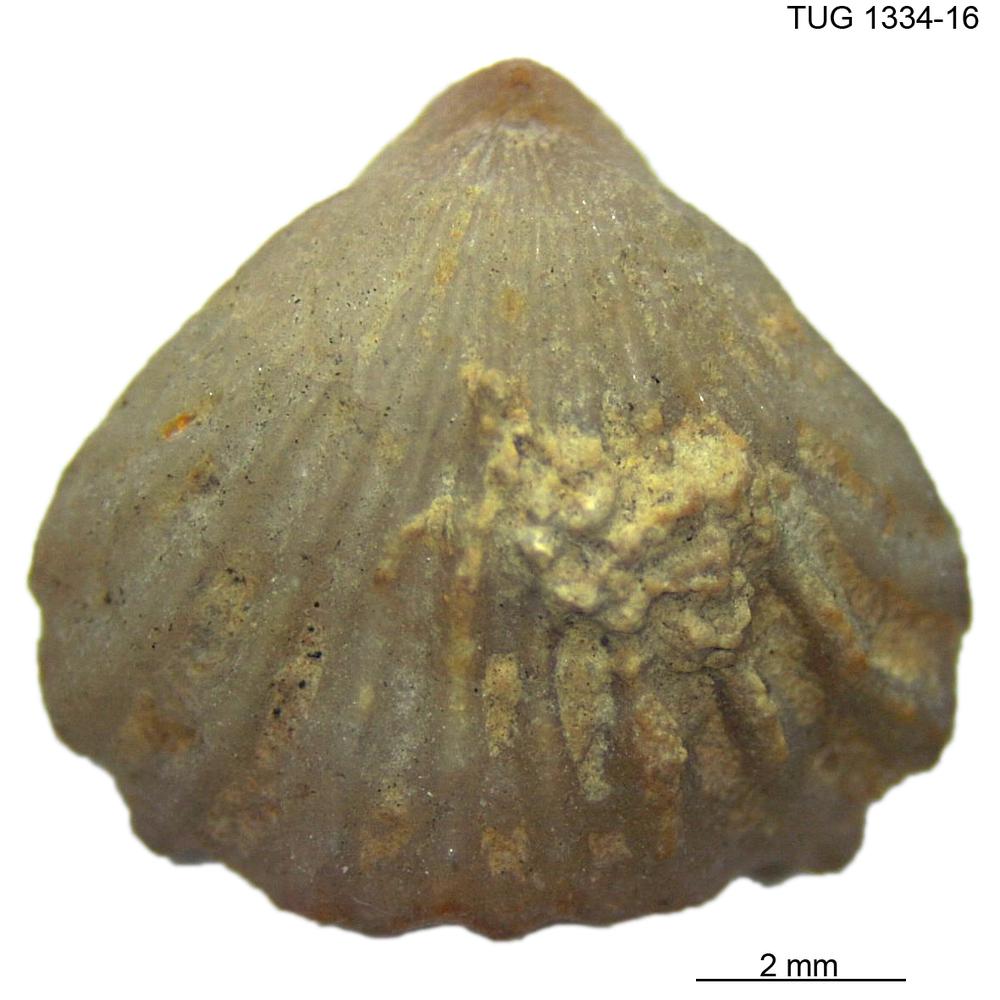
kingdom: Animalia
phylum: Brachiopoda
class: Rhynchonellata
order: Rhynchonellida
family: Trigonirhynchiidae
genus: Rostricellula
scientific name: Rostricellula nobilis
